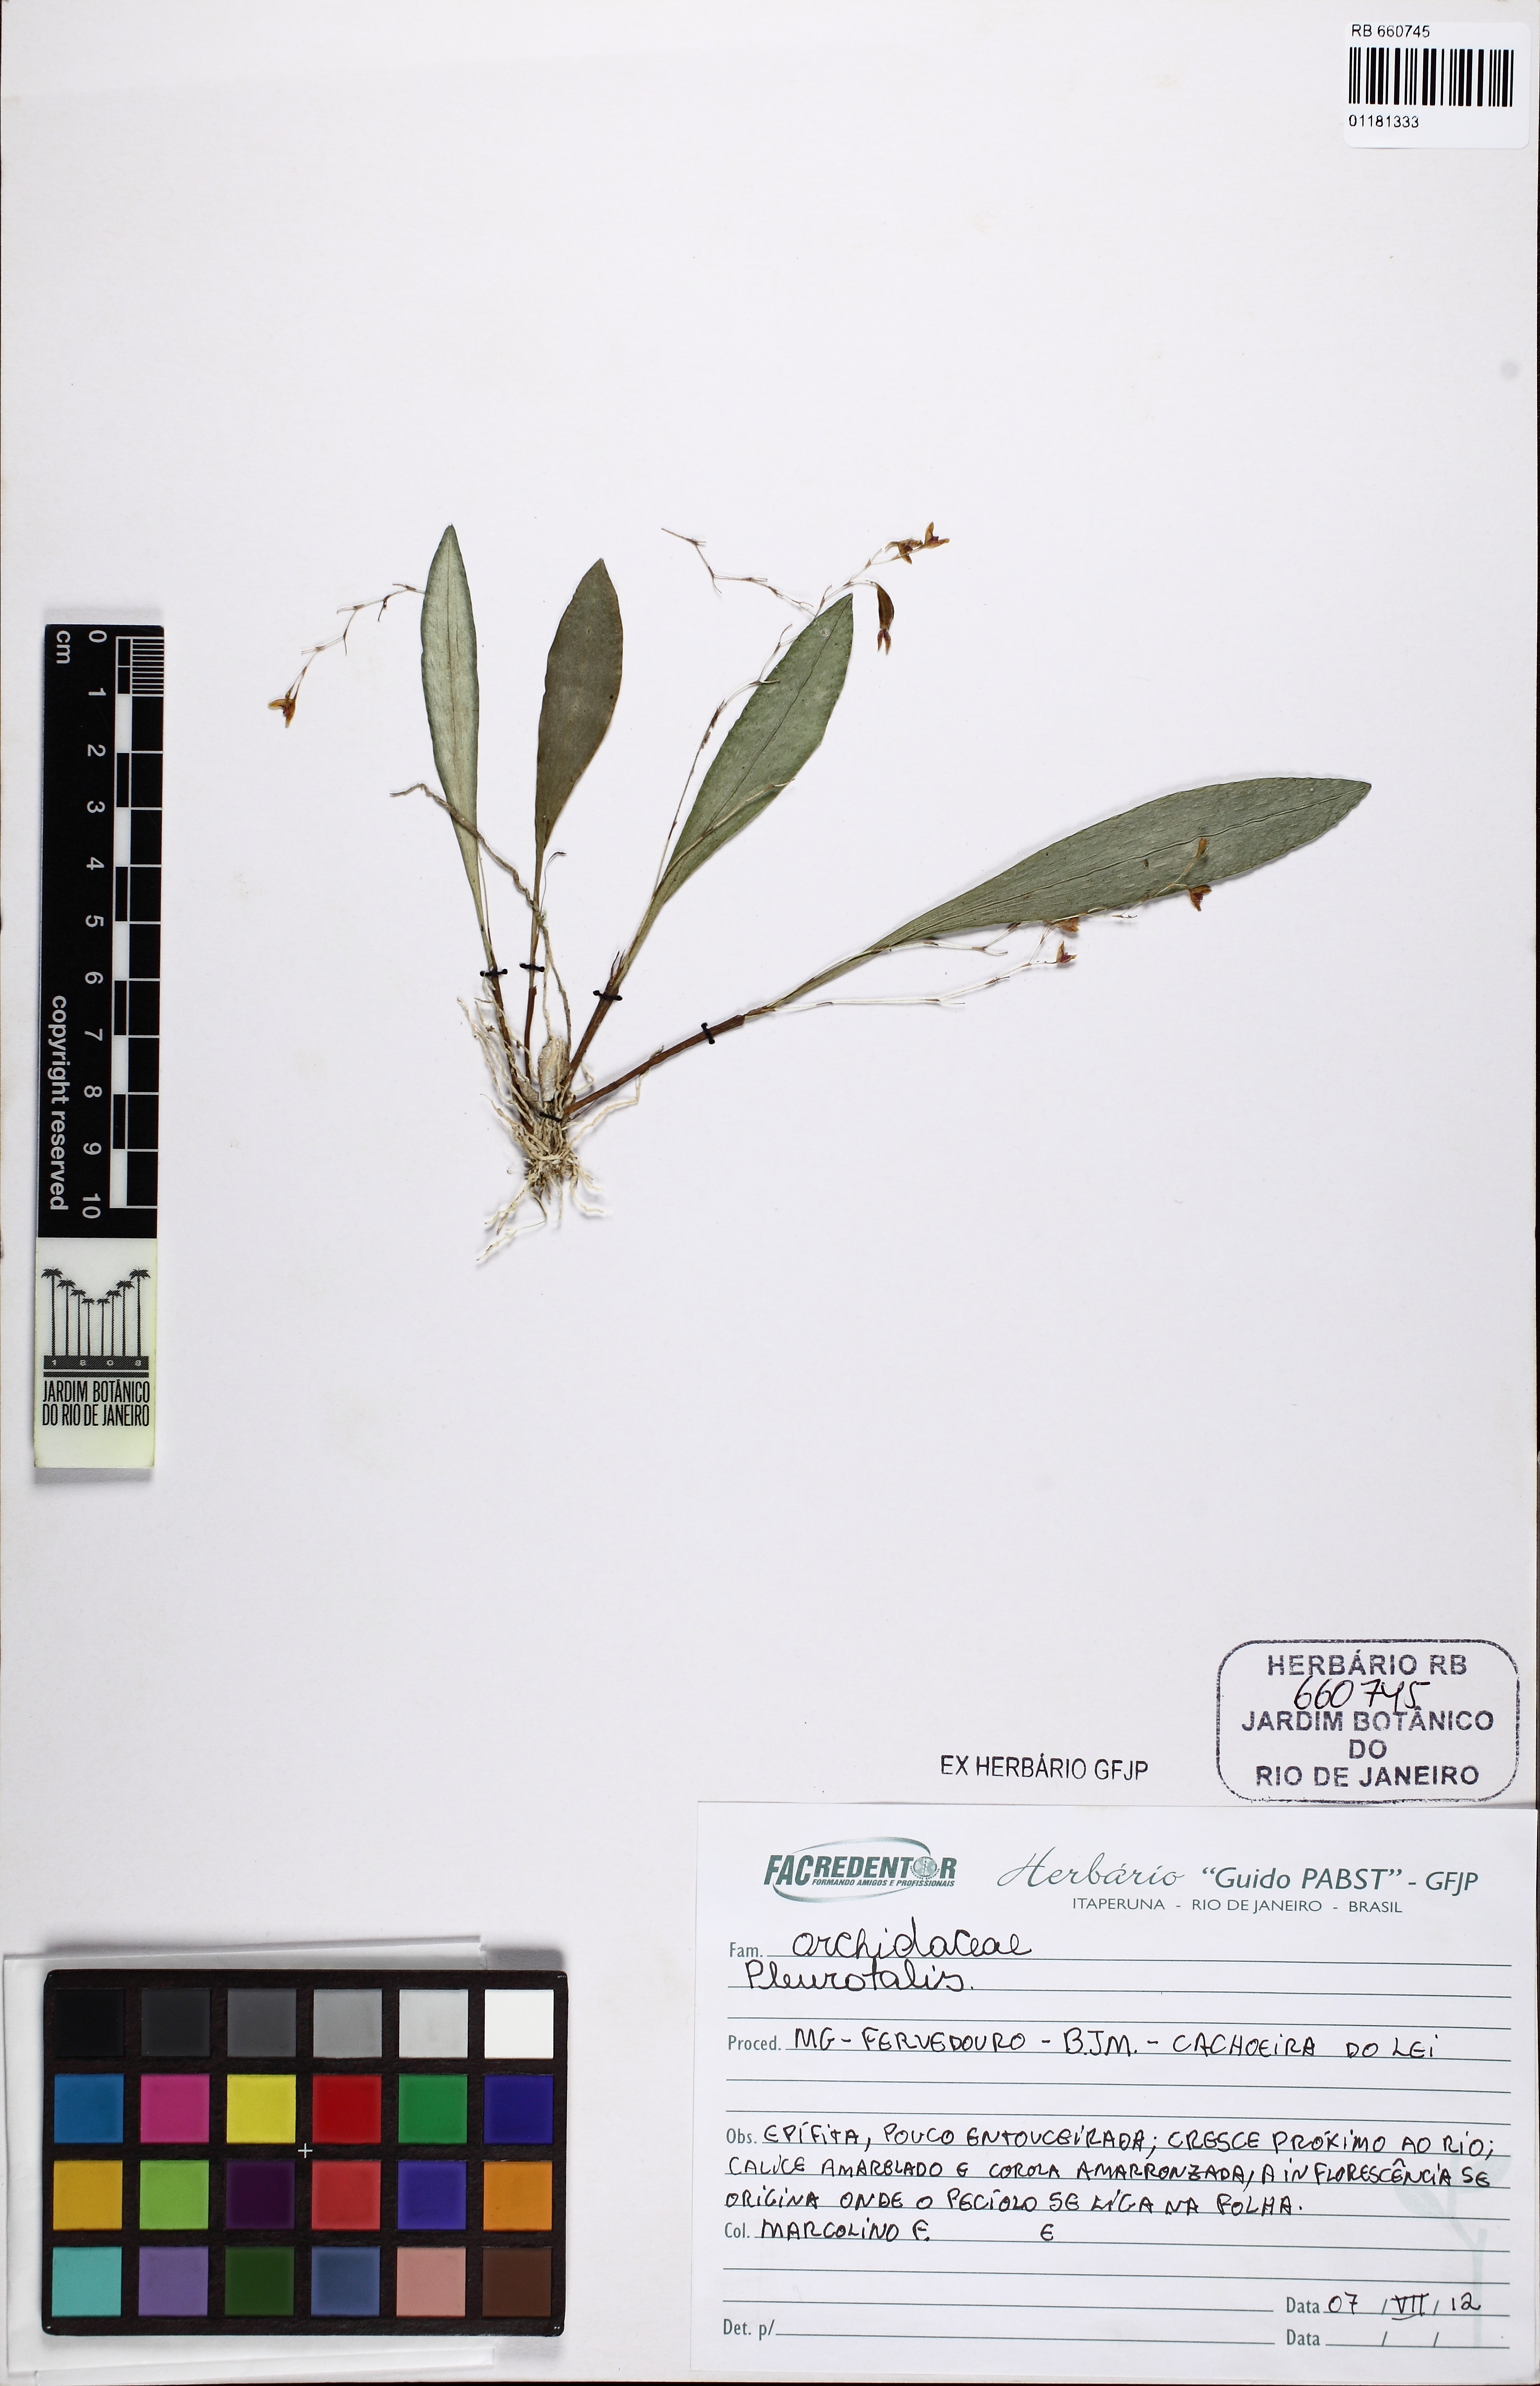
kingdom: Plantae
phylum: Tracheophyta
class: Liliopsida
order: Asparagales
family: Orchidaceae
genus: Acianthera
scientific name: Acianthera
